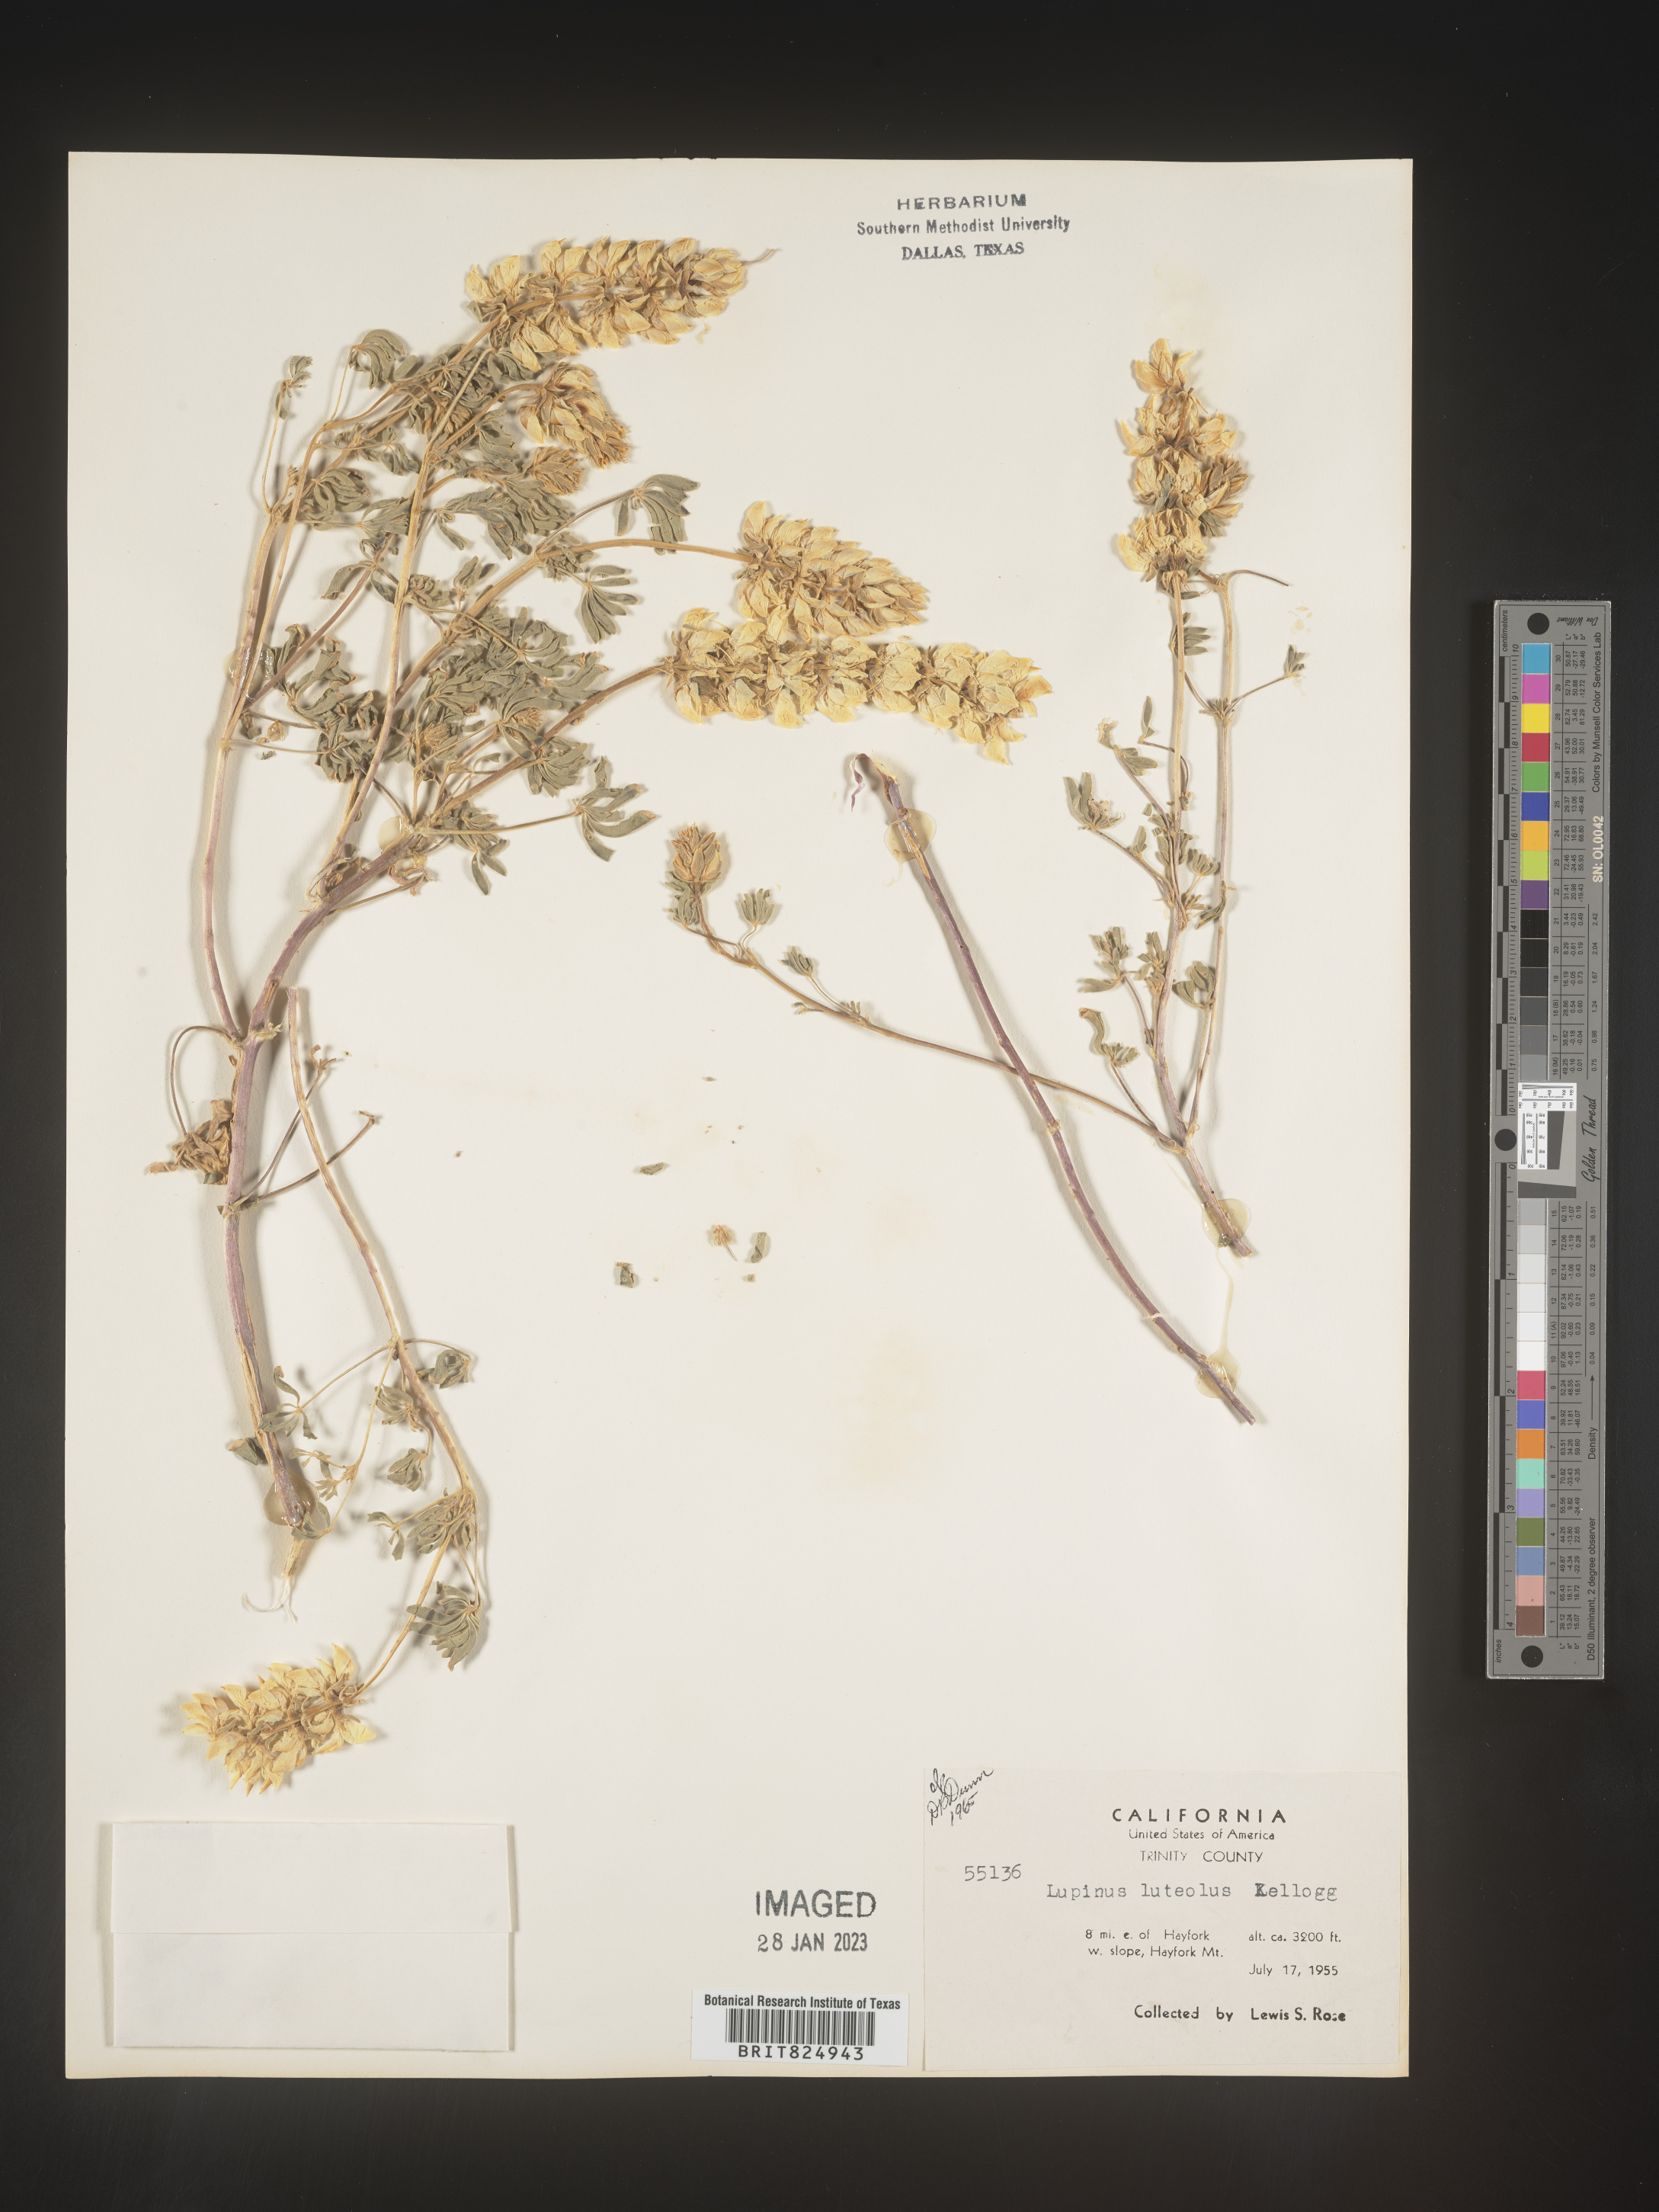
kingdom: Plantae
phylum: Tracheophyta
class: Magnoliopsida
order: Fabales
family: Fabaceae
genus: Lupinus
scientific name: Lupinus
